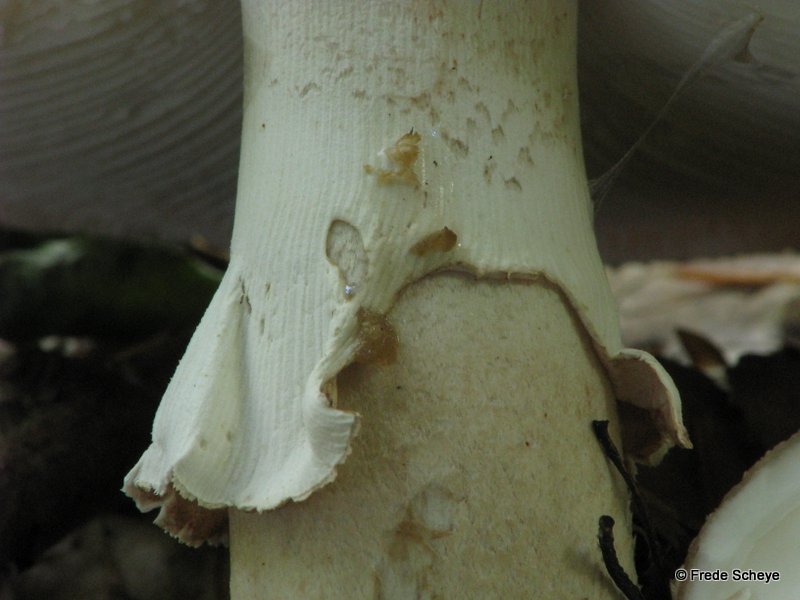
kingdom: Fungi
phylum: Basidiomycota
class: Agaricomycetes
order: Agaricales
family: Amanitaceae
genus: Amanita
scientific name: Amanita rubescens
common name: rødmende fluesvamp
